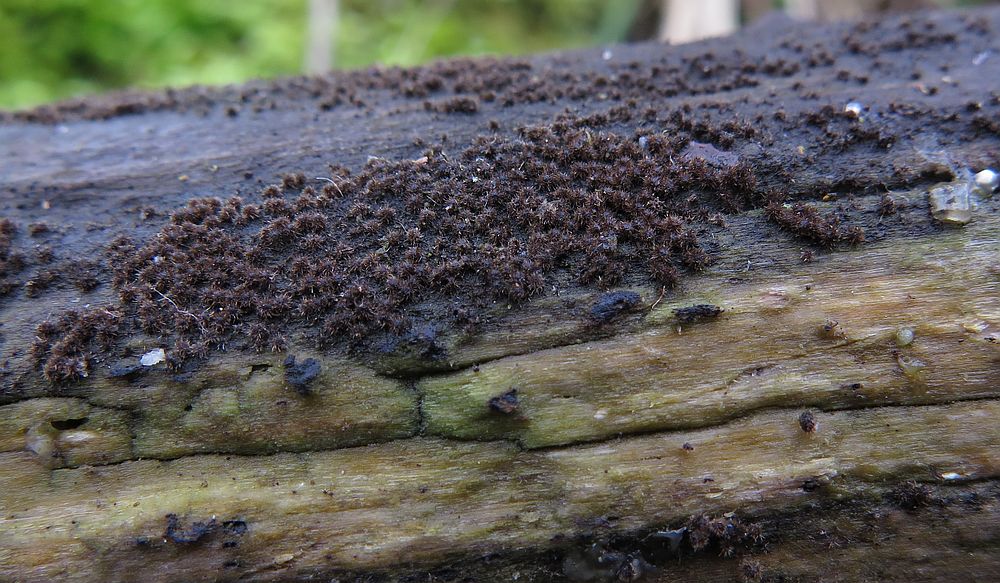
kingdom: Fungi
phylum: Ascomycota
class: Sordariomycetes
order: Sordariales
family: Helminthosphaeriaceae
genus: Echinosphaeria
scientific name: Echinosphaeria strigosa
